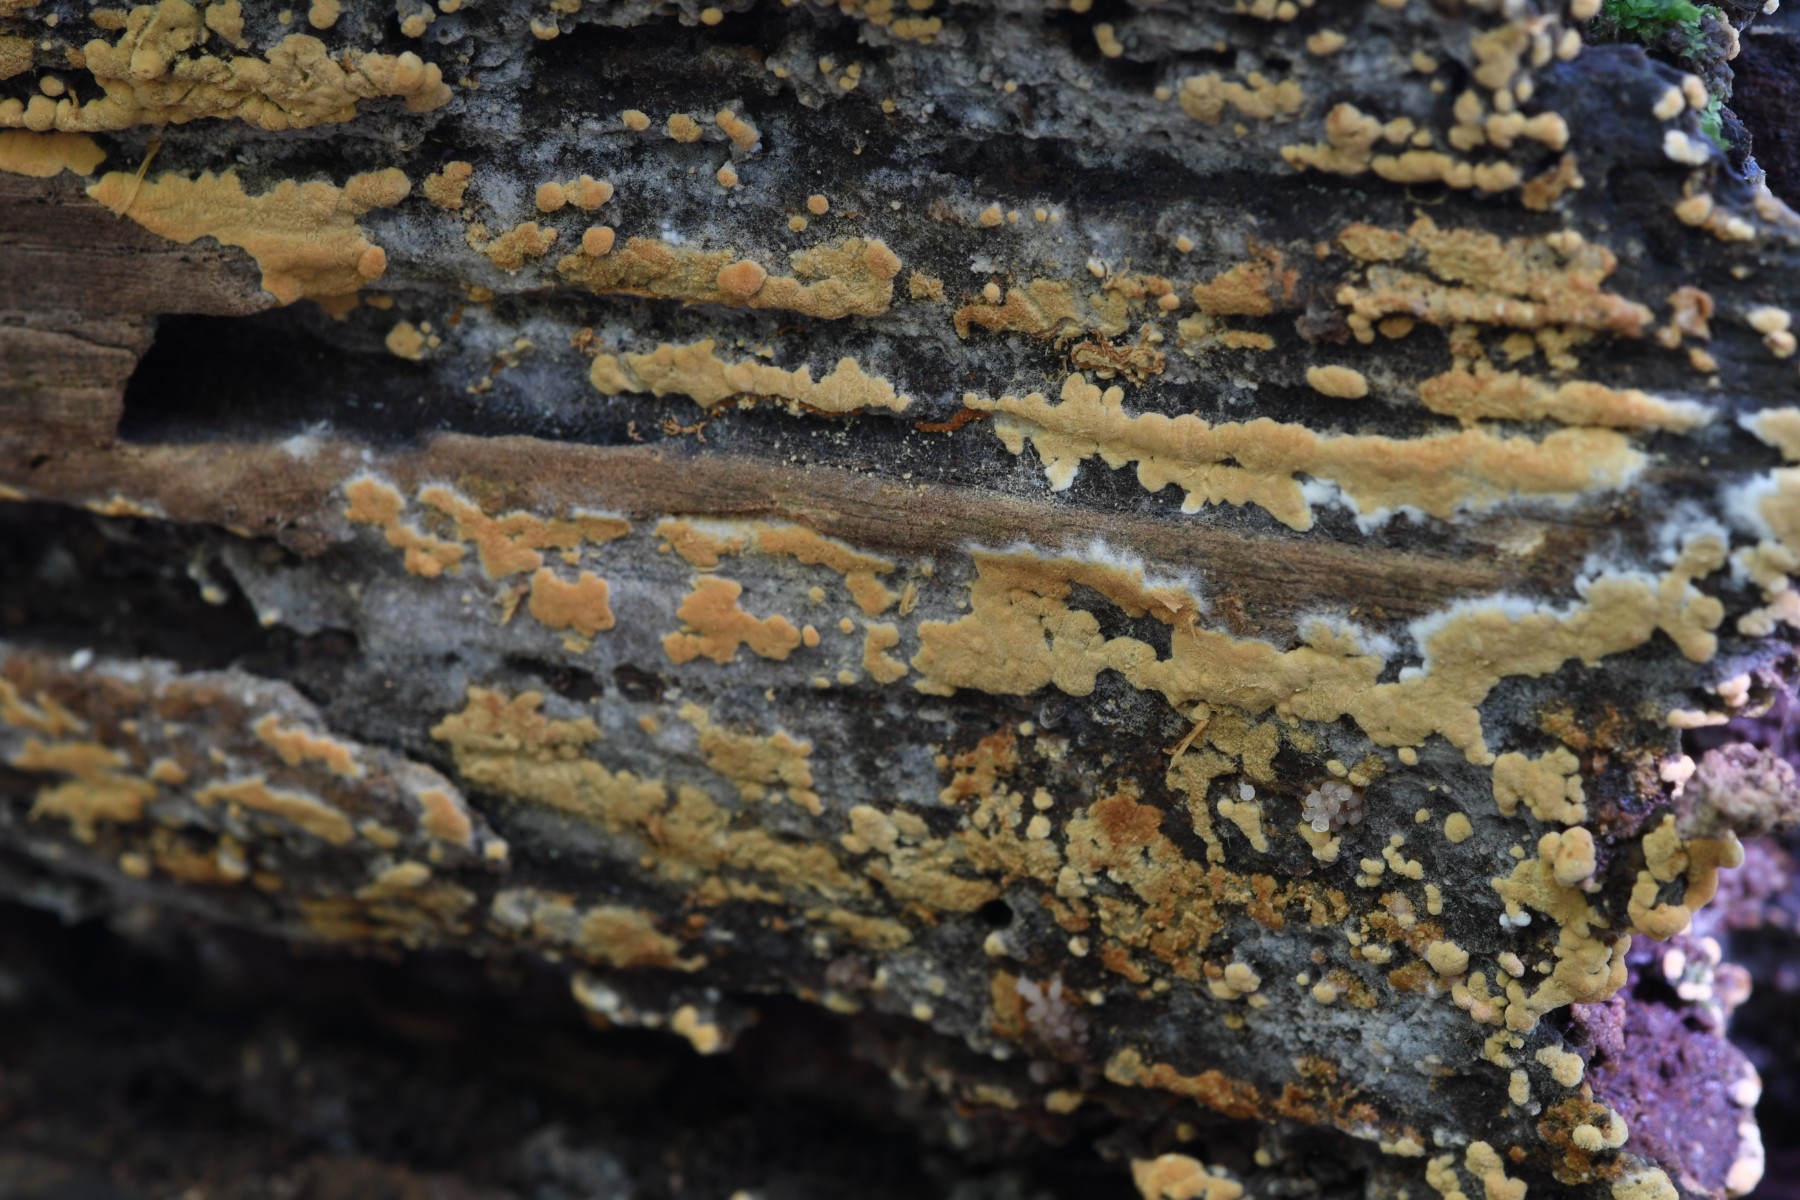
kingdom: Fungi
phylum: Basidiomycota
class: Agaricomycetes
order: Cantharellales
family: Botryobasidiaceae
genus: Botryobasidium
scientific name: Botryobasidium aureum
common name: gylden spindhinde
